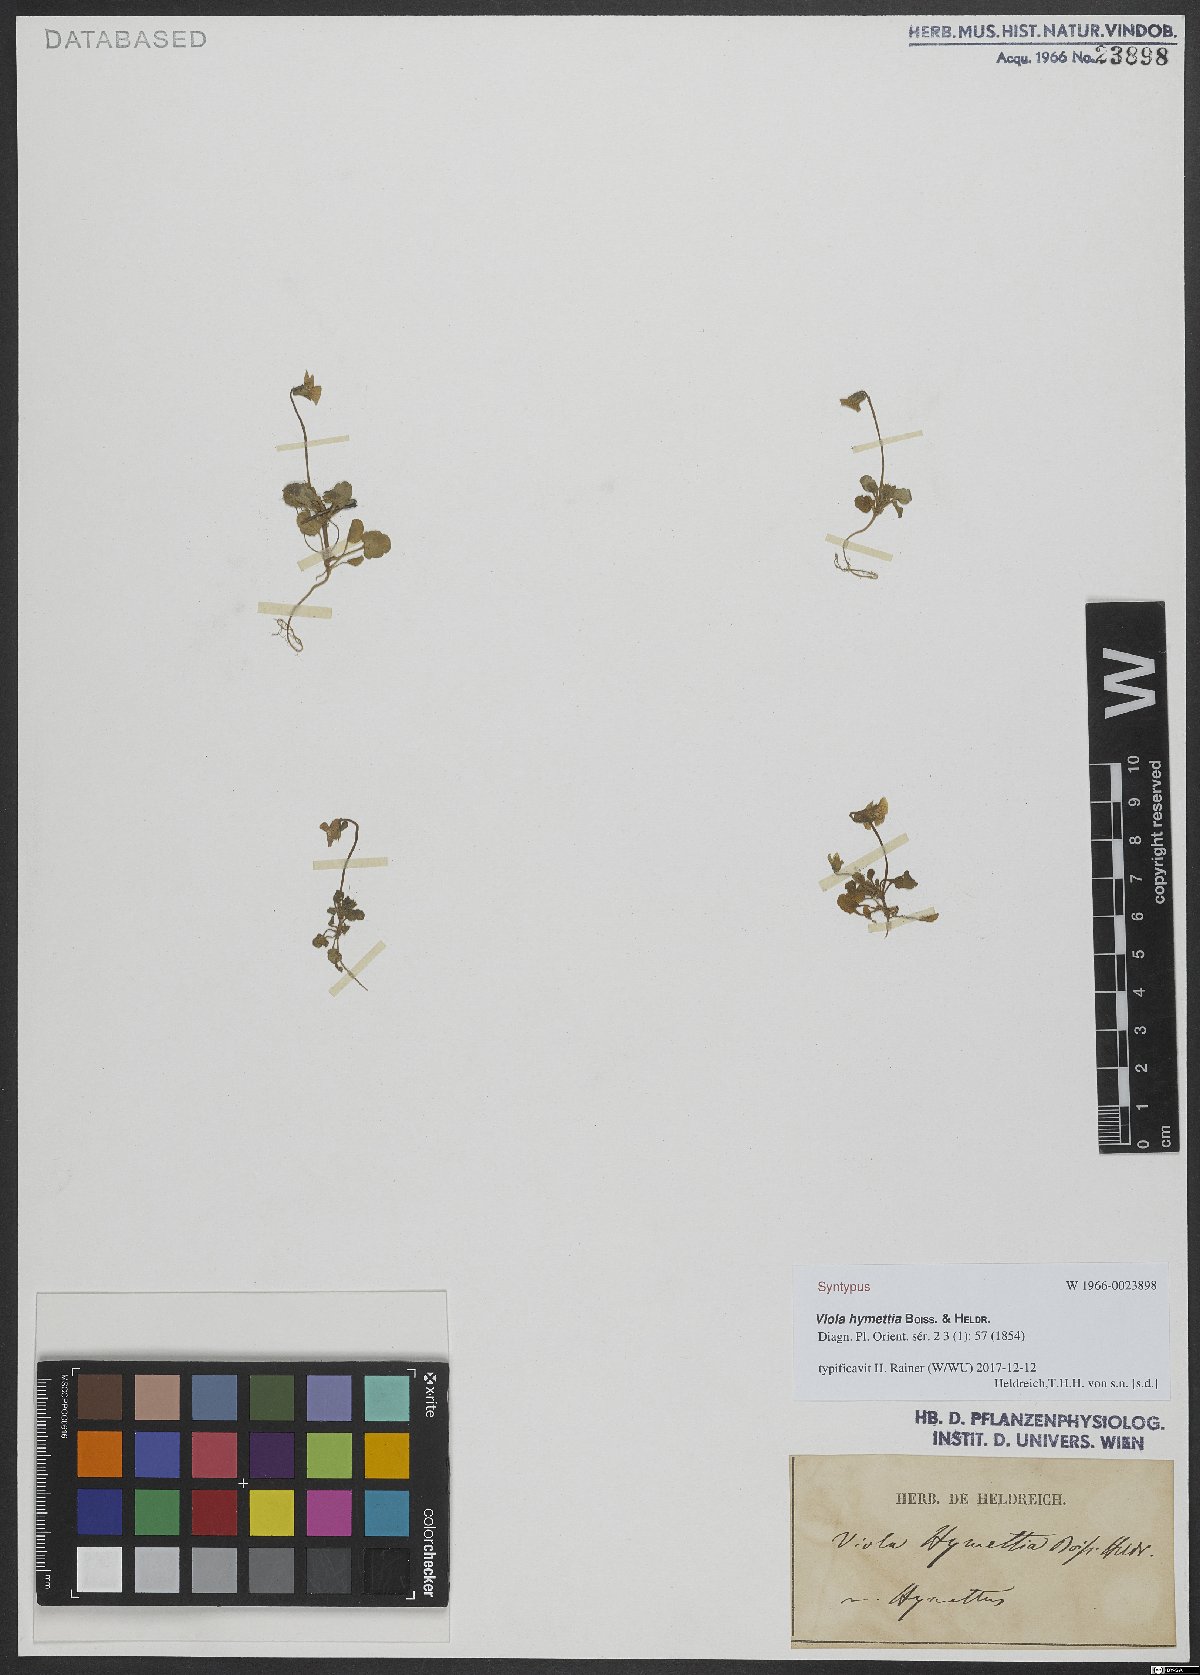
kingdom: Plantae
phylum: Tracheophyta
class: Magnoliopsida
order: Malpighiales
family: Violaceae
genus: Viola
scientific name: Viola hymettia
